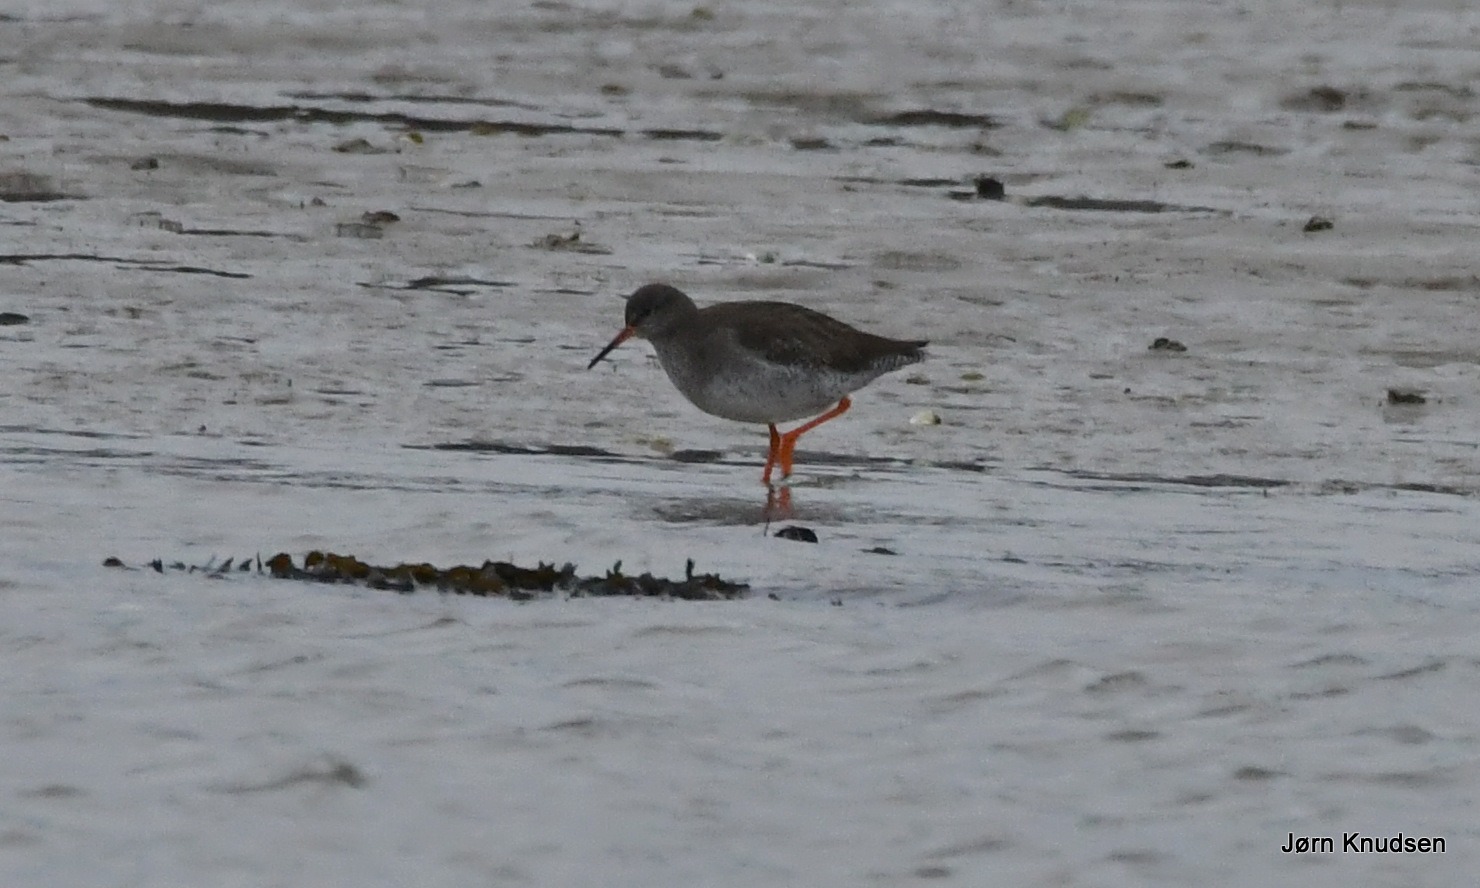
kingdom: Animalia
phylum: Chordata
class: Aves
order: Charadriiformes
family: Scolopacidae
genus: Tringa
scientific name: Tringa totanus
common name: Rødben
